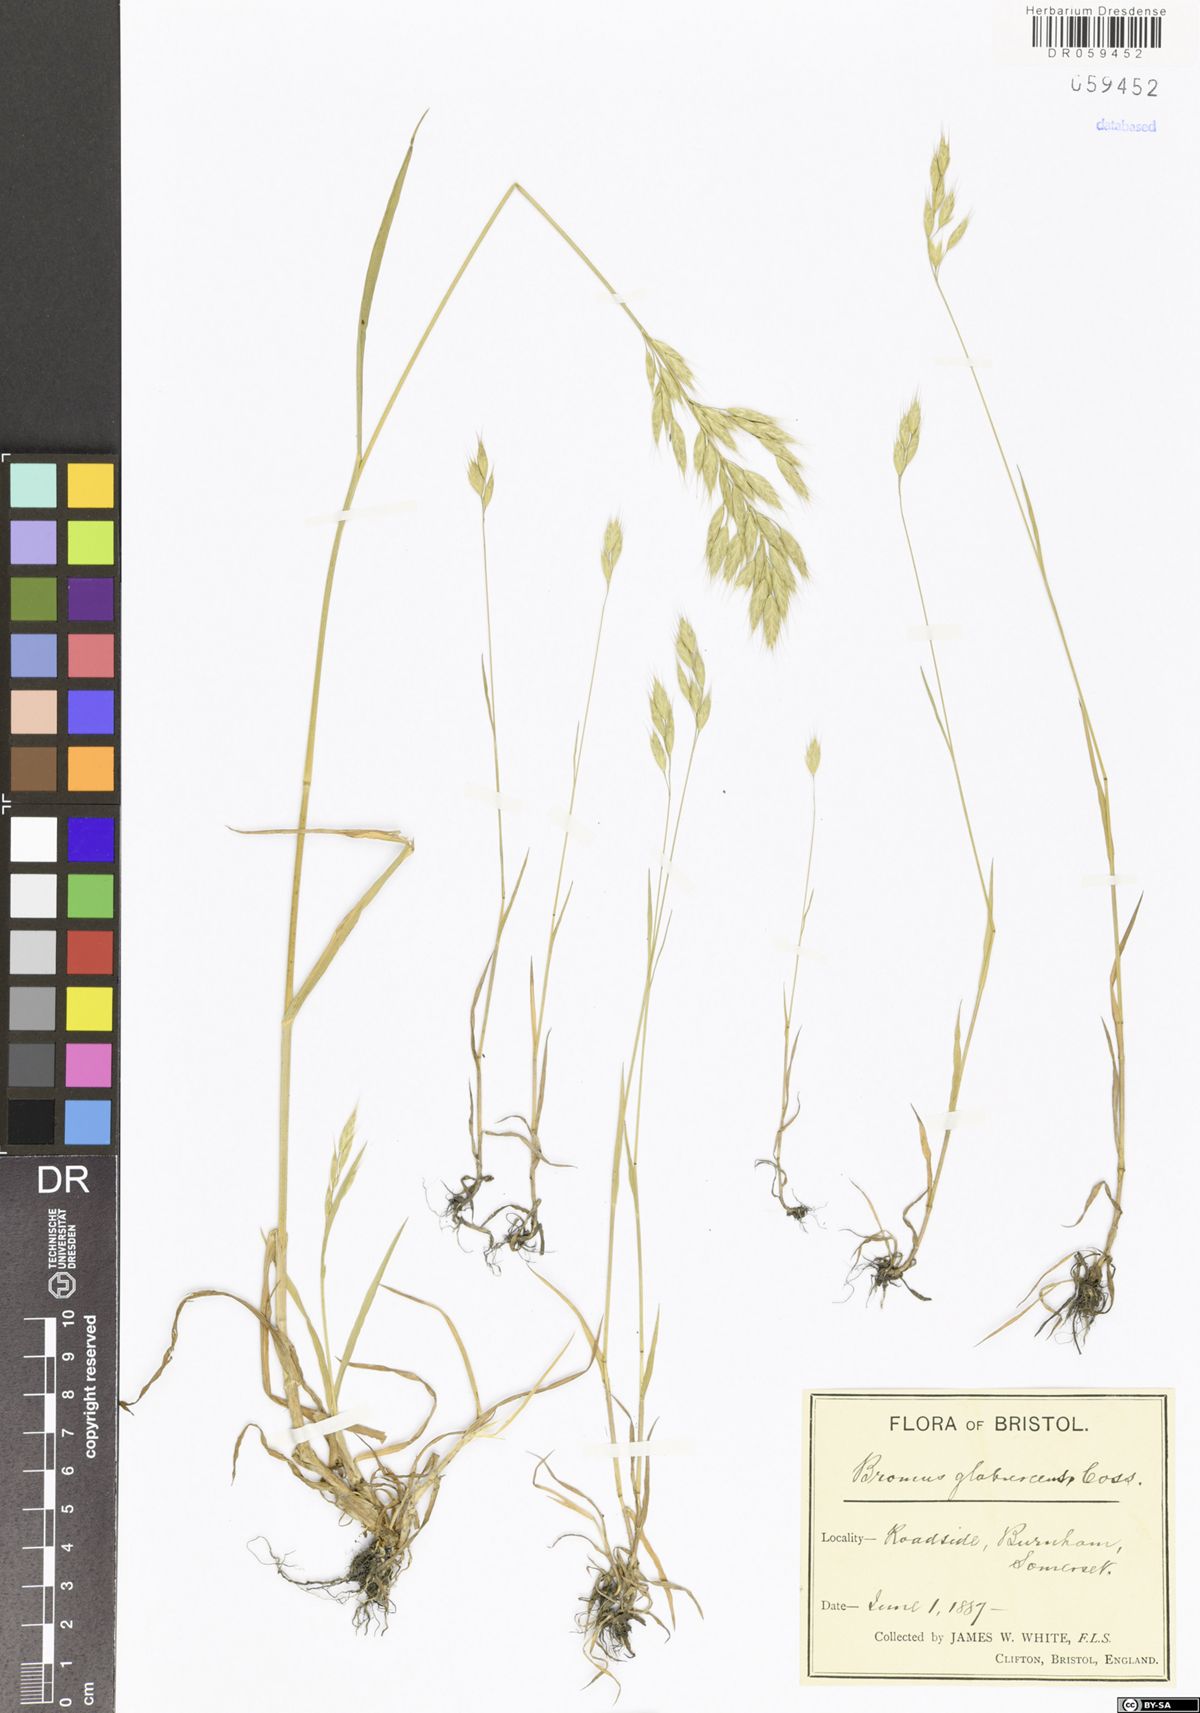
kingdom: Plantae
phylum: Tracheophyta
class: Liliopsida
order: Poales
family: Poaceae
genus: Bromus
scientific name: Bromus
